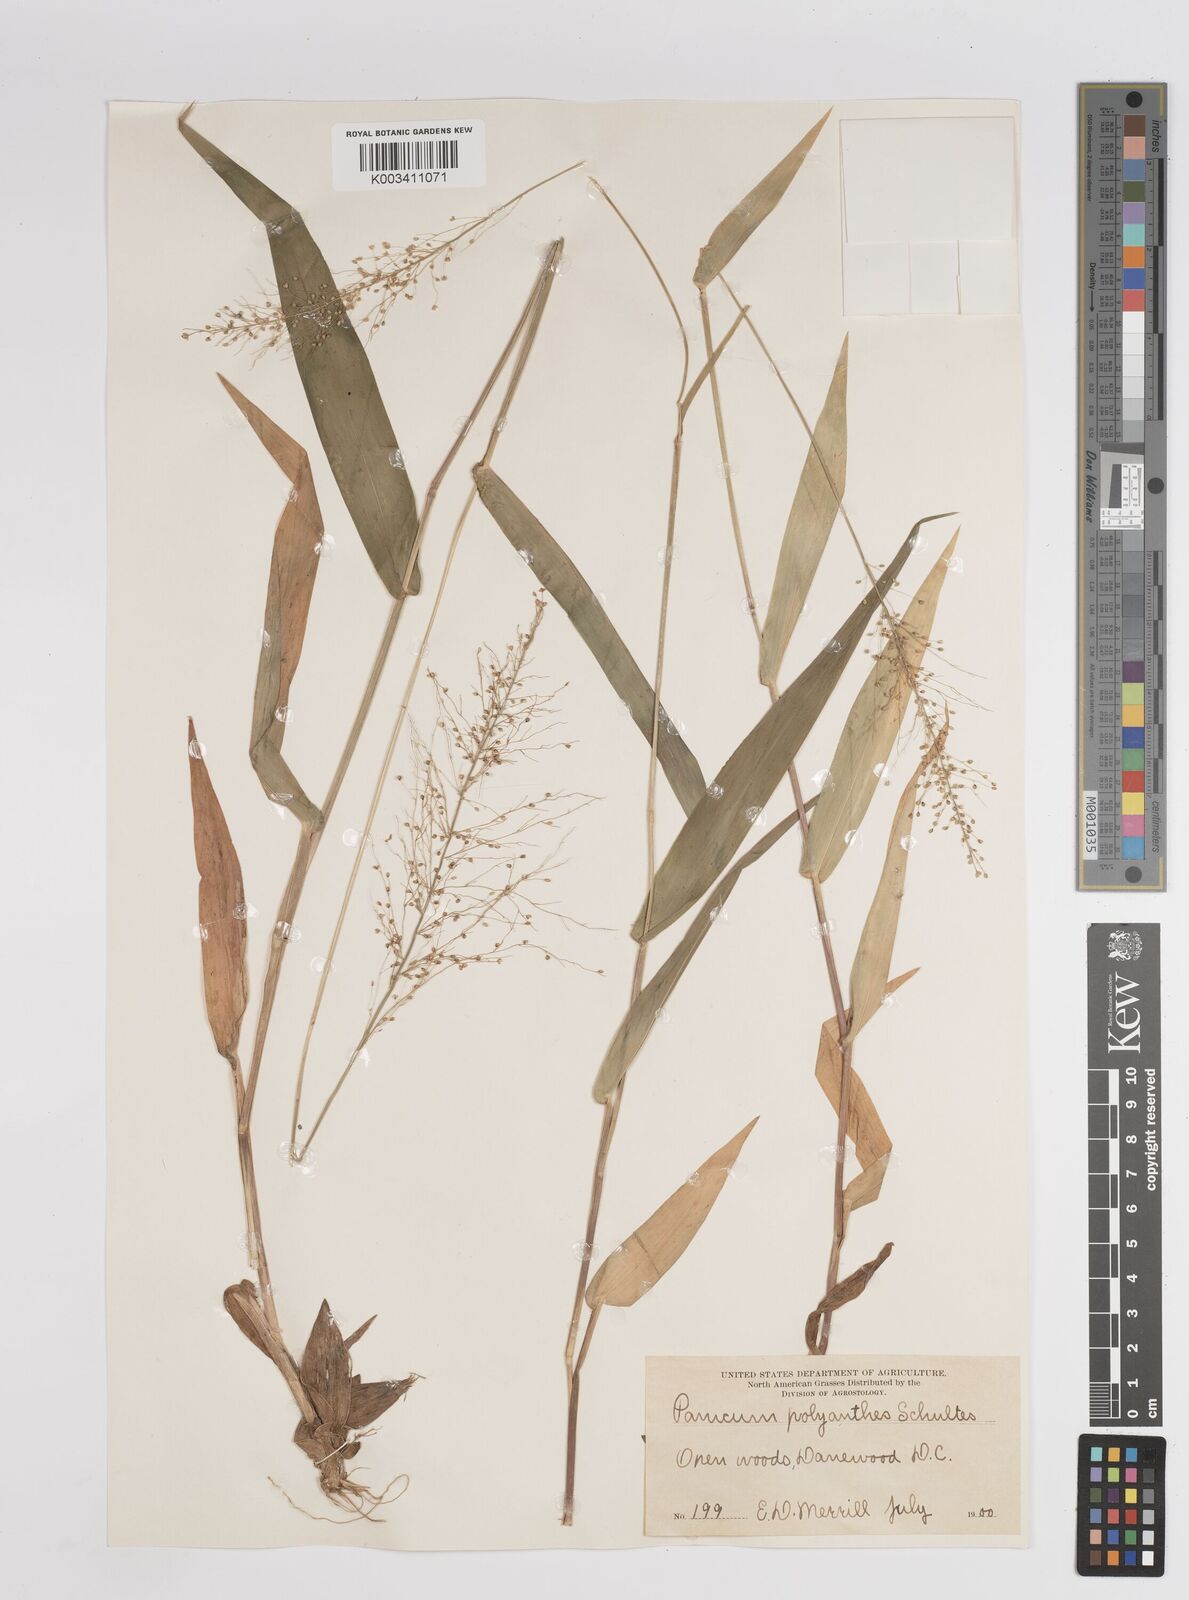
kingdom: Plantae
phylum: Tracheophyta
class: Liliopsida
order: Poales
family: Poaceae
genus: Dichanthelium
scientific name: Dichanthelium polyanthes
